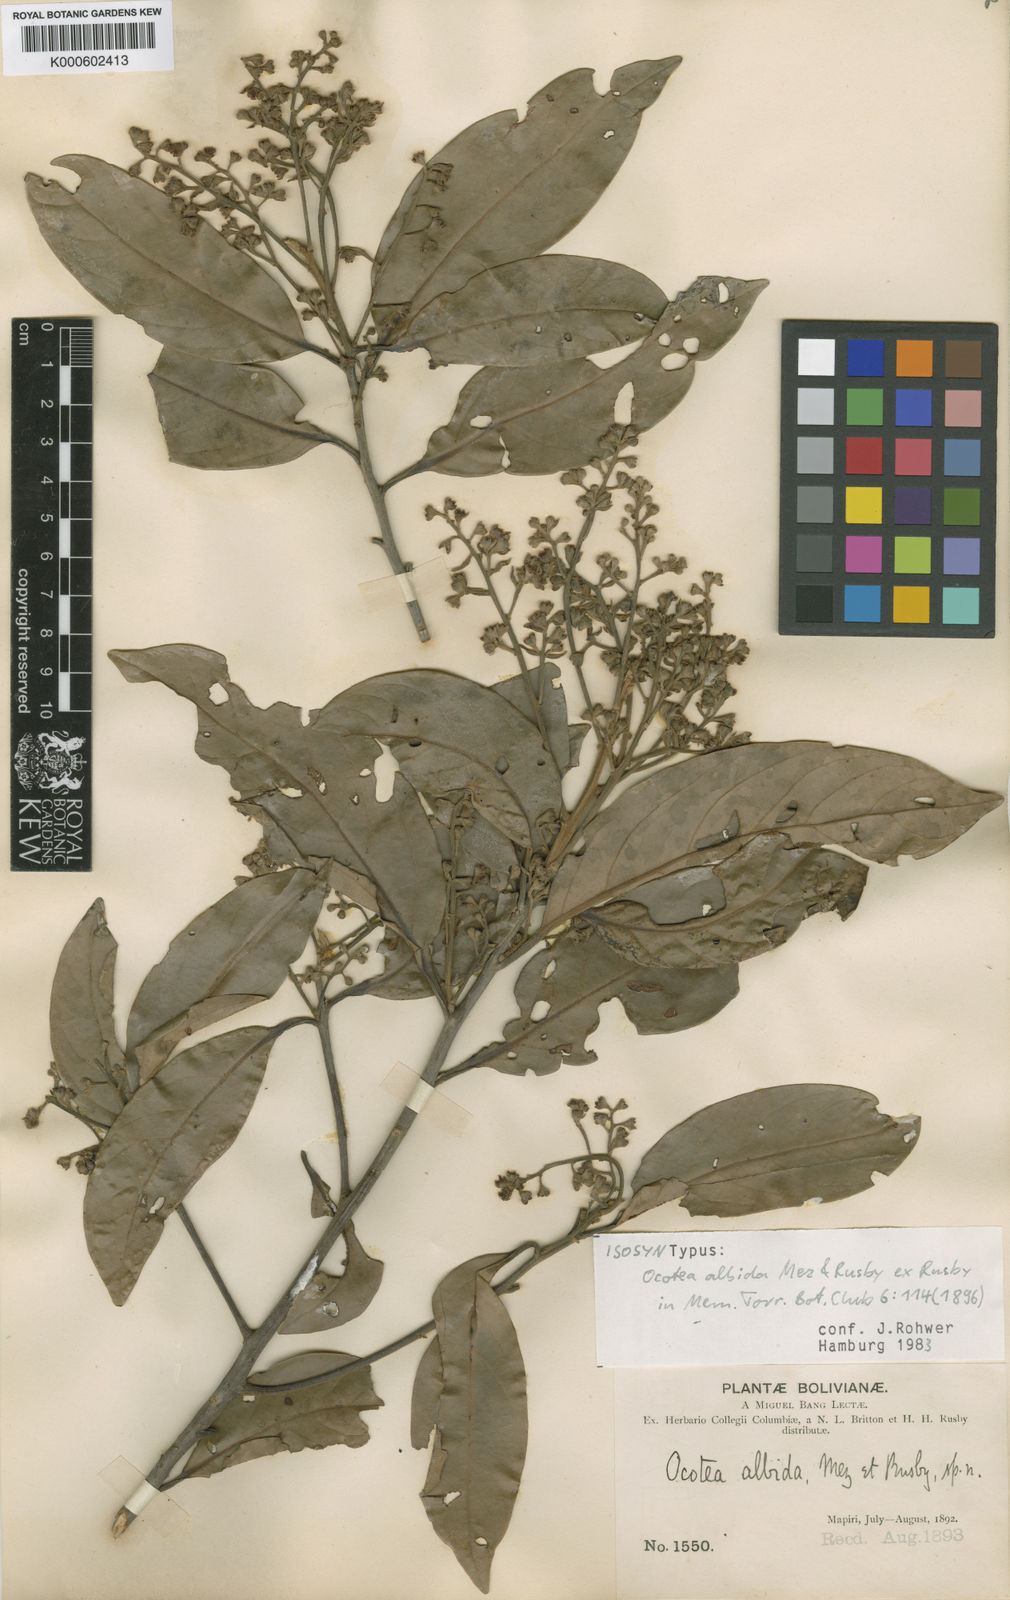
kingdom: Plantae
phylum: Tracheophyta
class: Magnoliopsida
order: Laurales
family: Lauraceae
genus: Ocotea
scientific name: Ocotea albida
